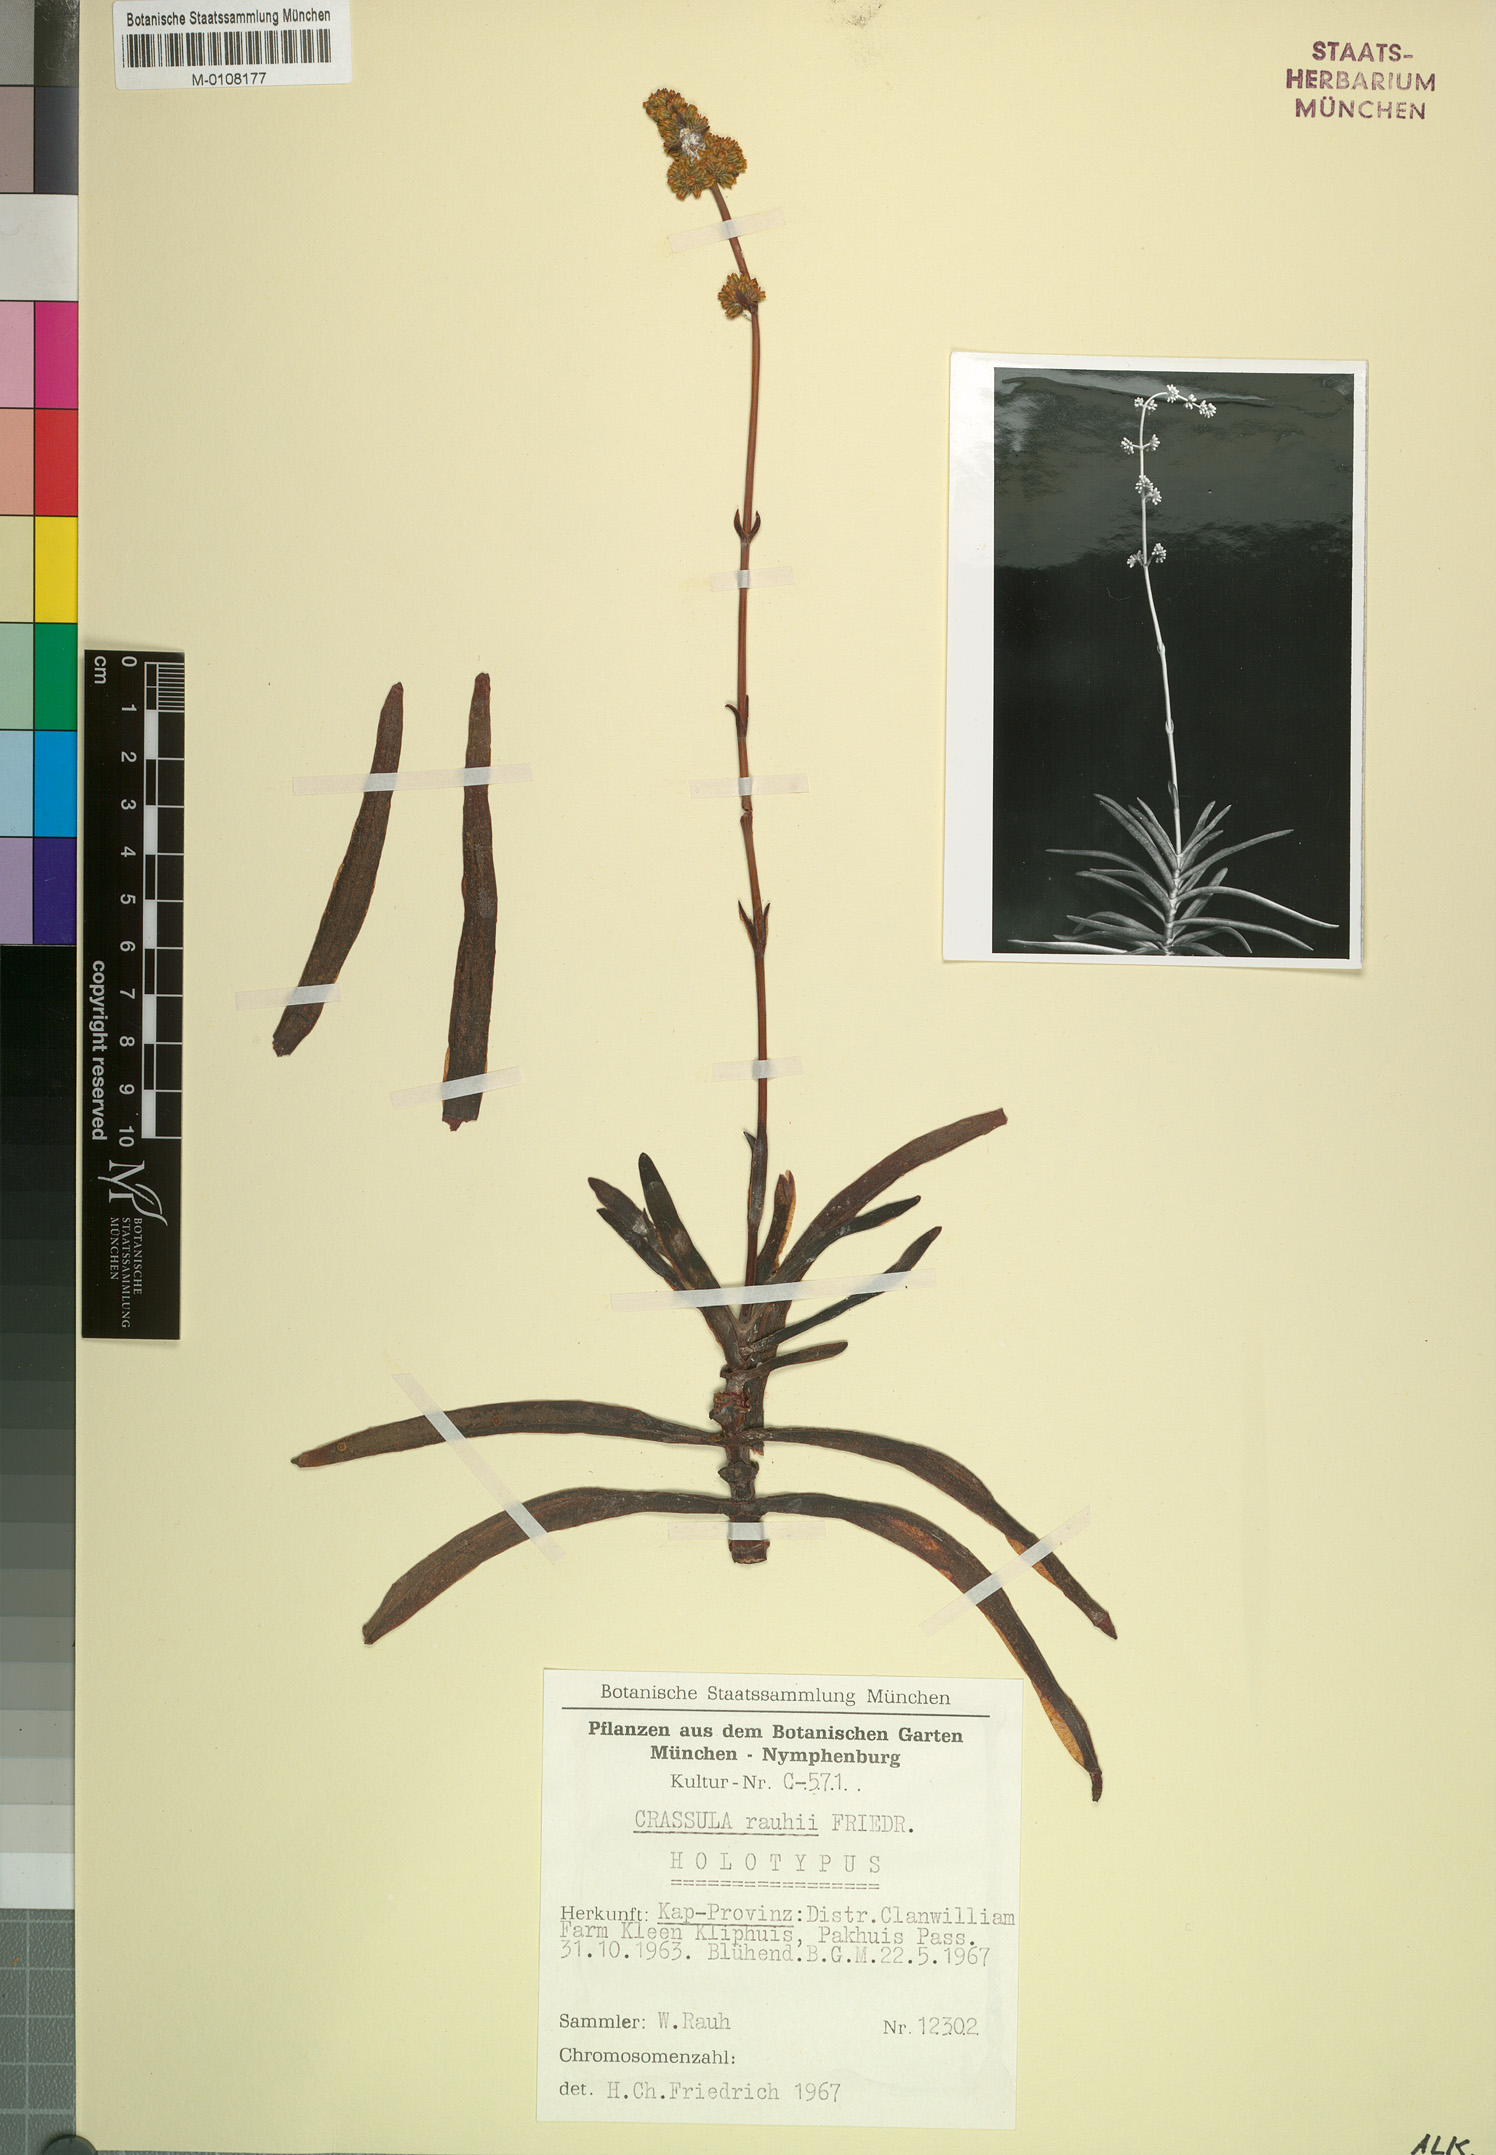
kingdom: Plantae
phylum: Tracheophyta
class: Magnoliopsida
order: Saxifragales
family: Crassulaceae
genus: Crassula
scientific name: Crassula subacaulis
